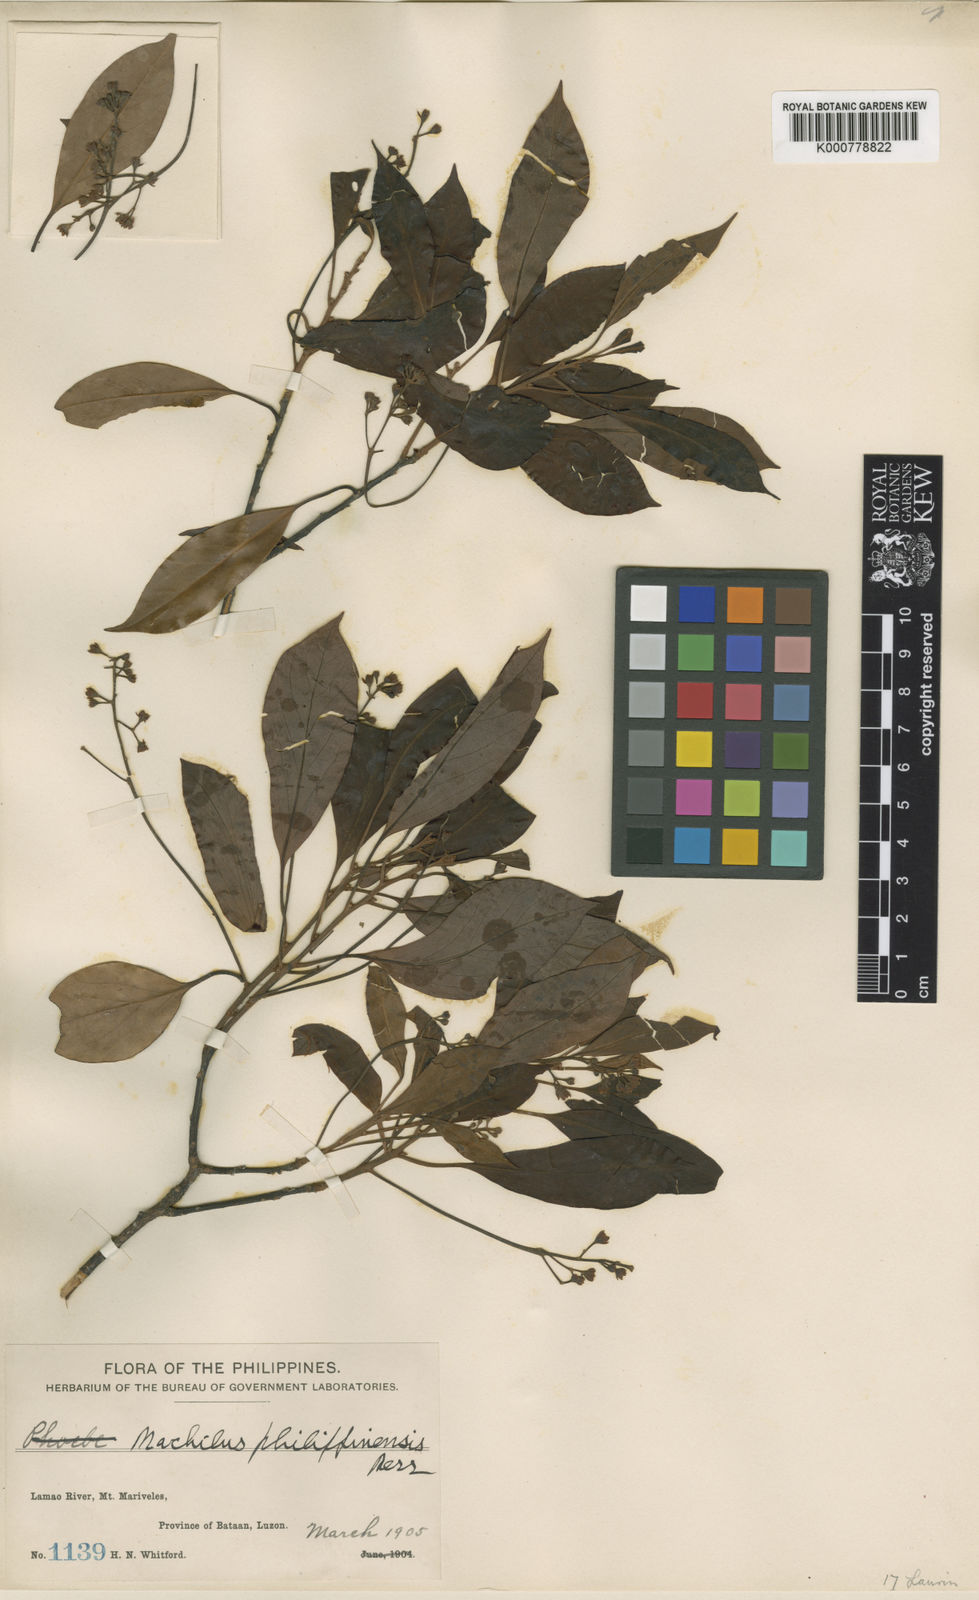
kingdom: Plantae
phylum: Tracheophyta
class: Magnoliopsida
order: Laurales
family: Lauraceae
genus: Cinnamomum
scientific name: Cinnamomum philippinense
